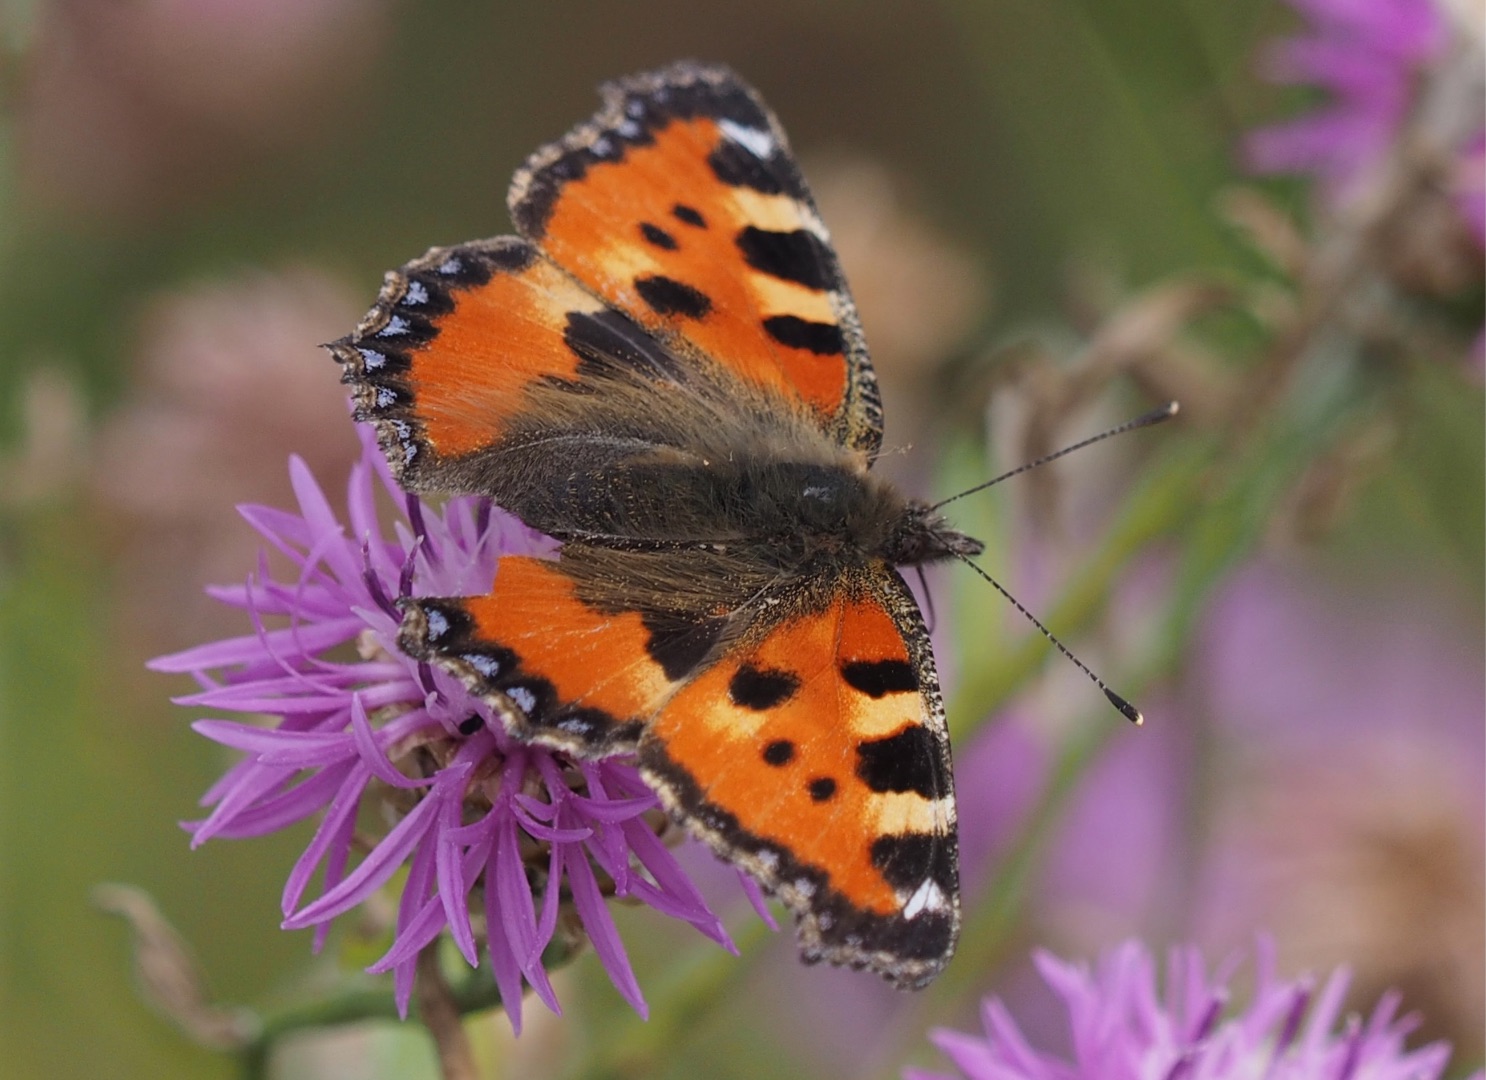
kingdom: Animalia
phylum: Arthropoda
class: Insecta
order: Lepidoptera
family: Nymphalidae
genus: Aglais
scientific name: Aglais urticae
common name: Nældens takvinge
